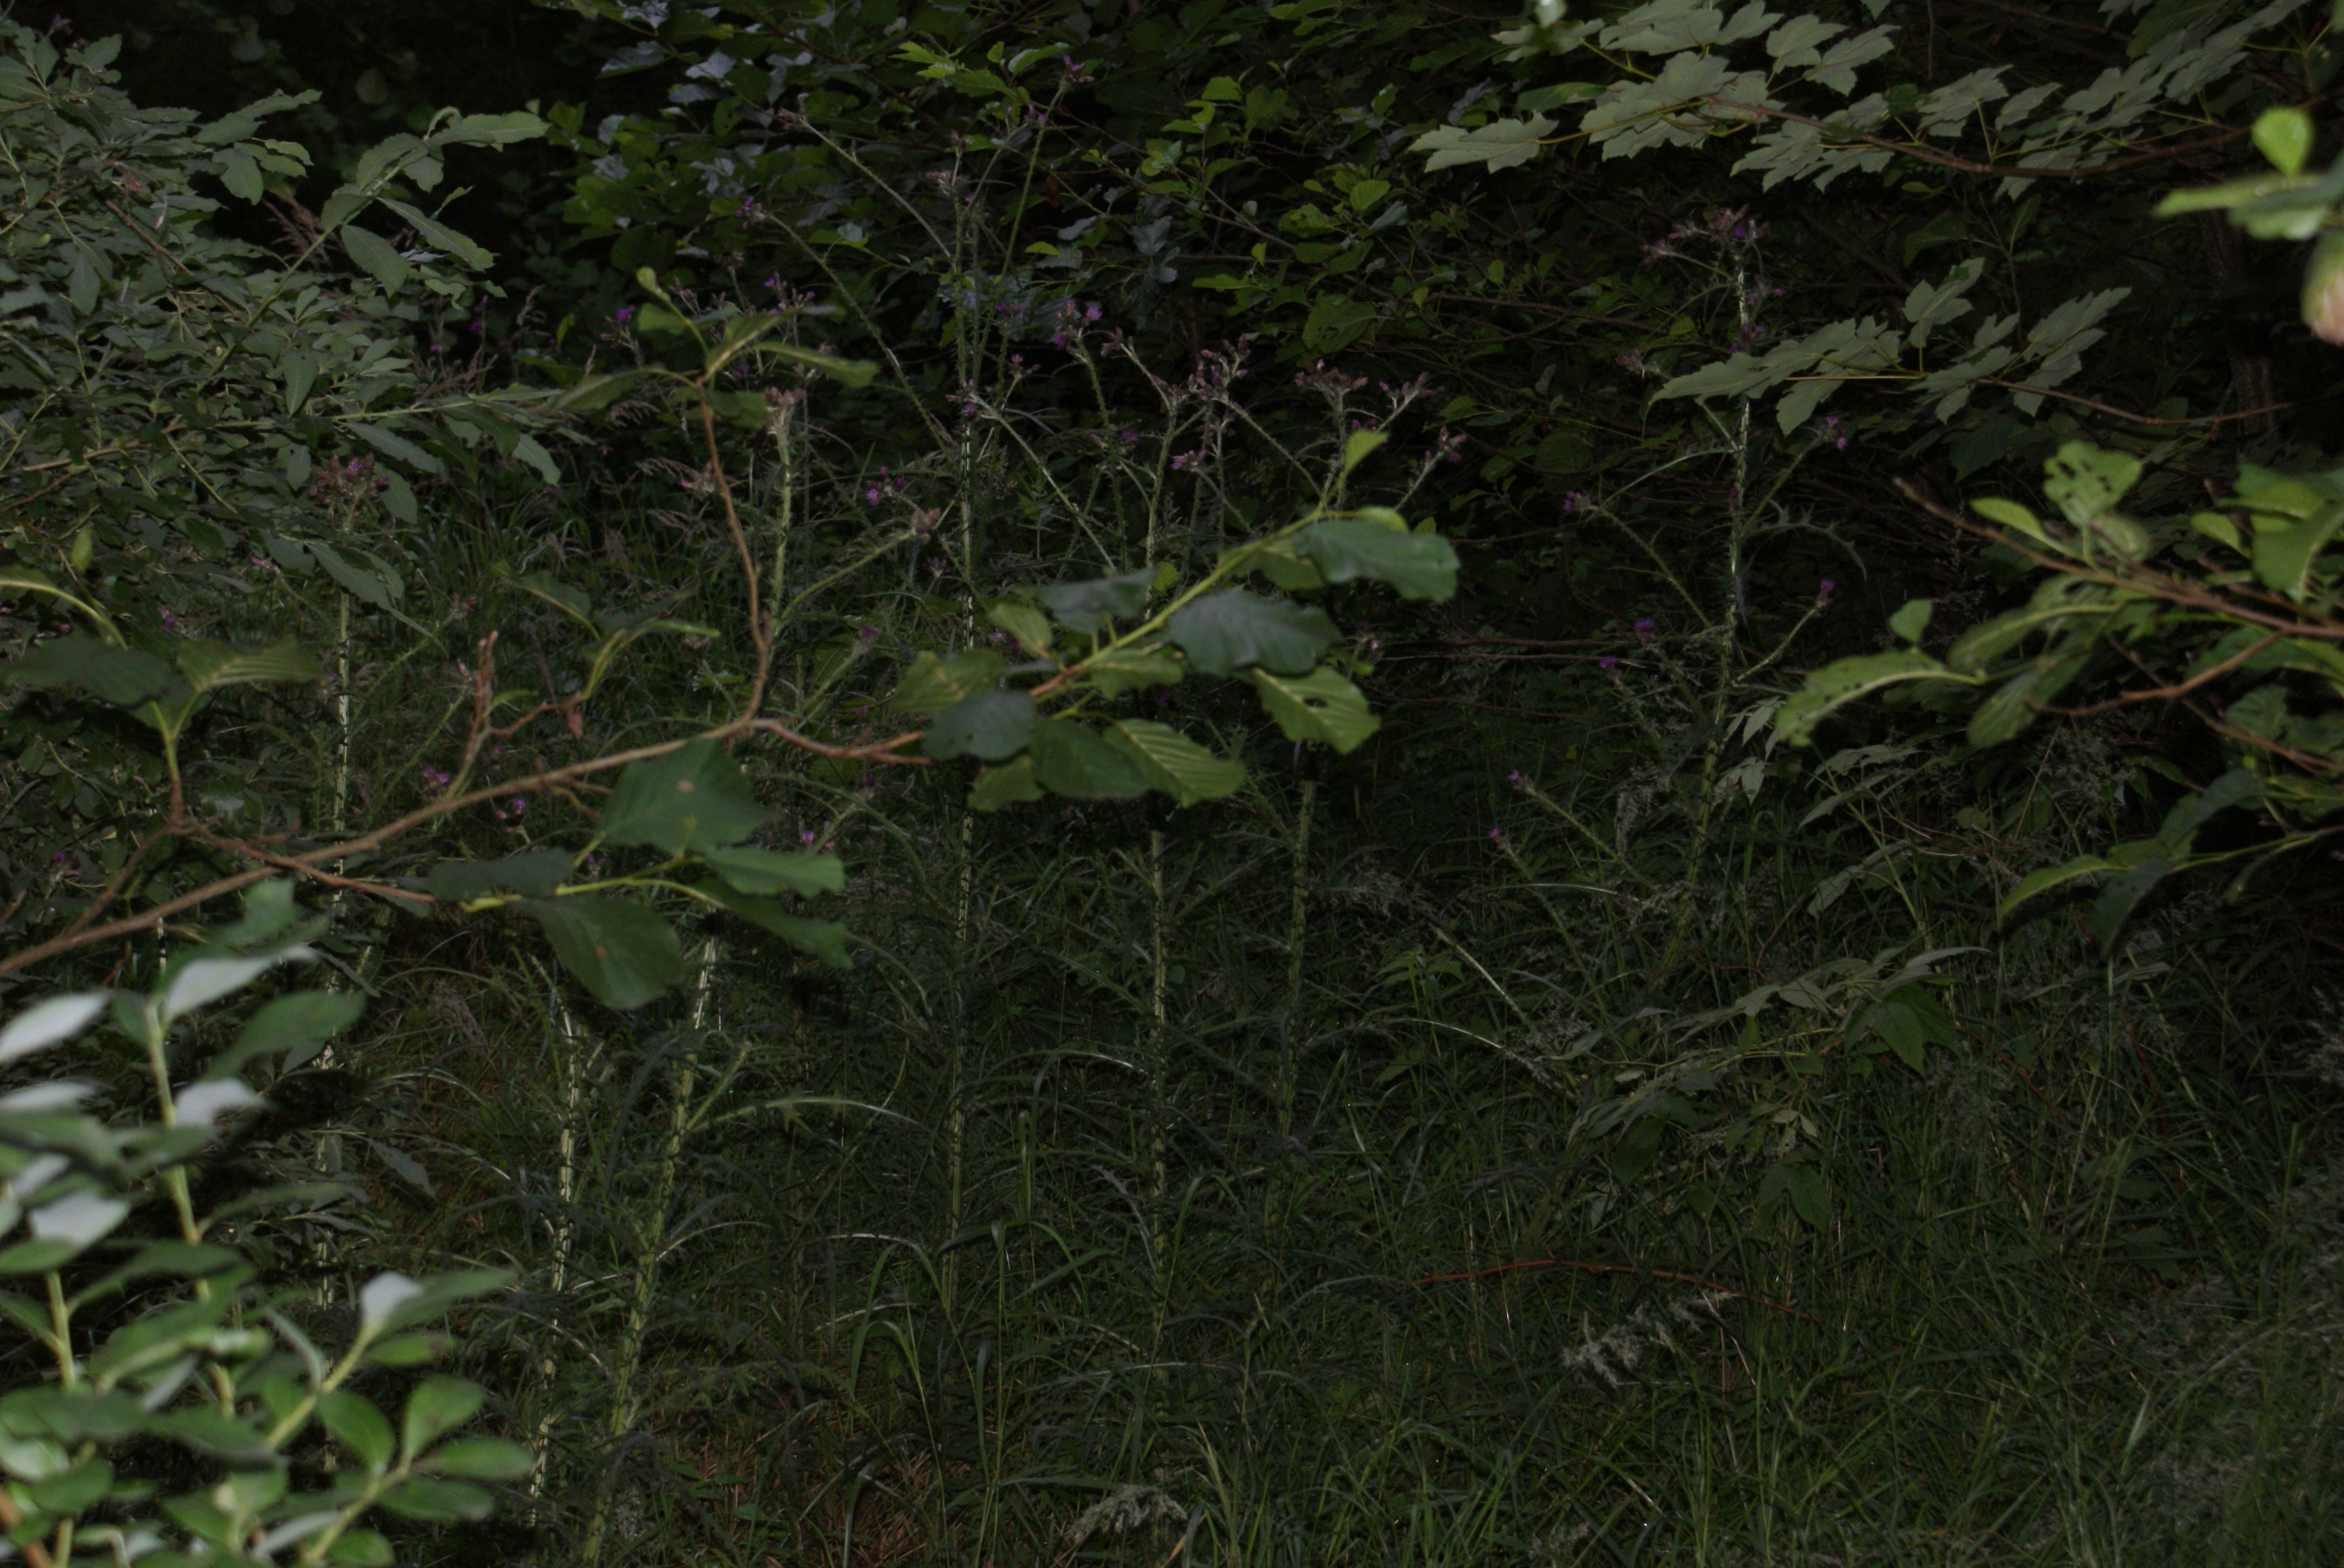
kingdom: Plantae
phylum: Tracheophyta
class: Magnoliopsida
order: Asterales
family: Asteraceae
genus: Cirsium
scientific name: Cirsium palustre
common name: Kær-tidsel
